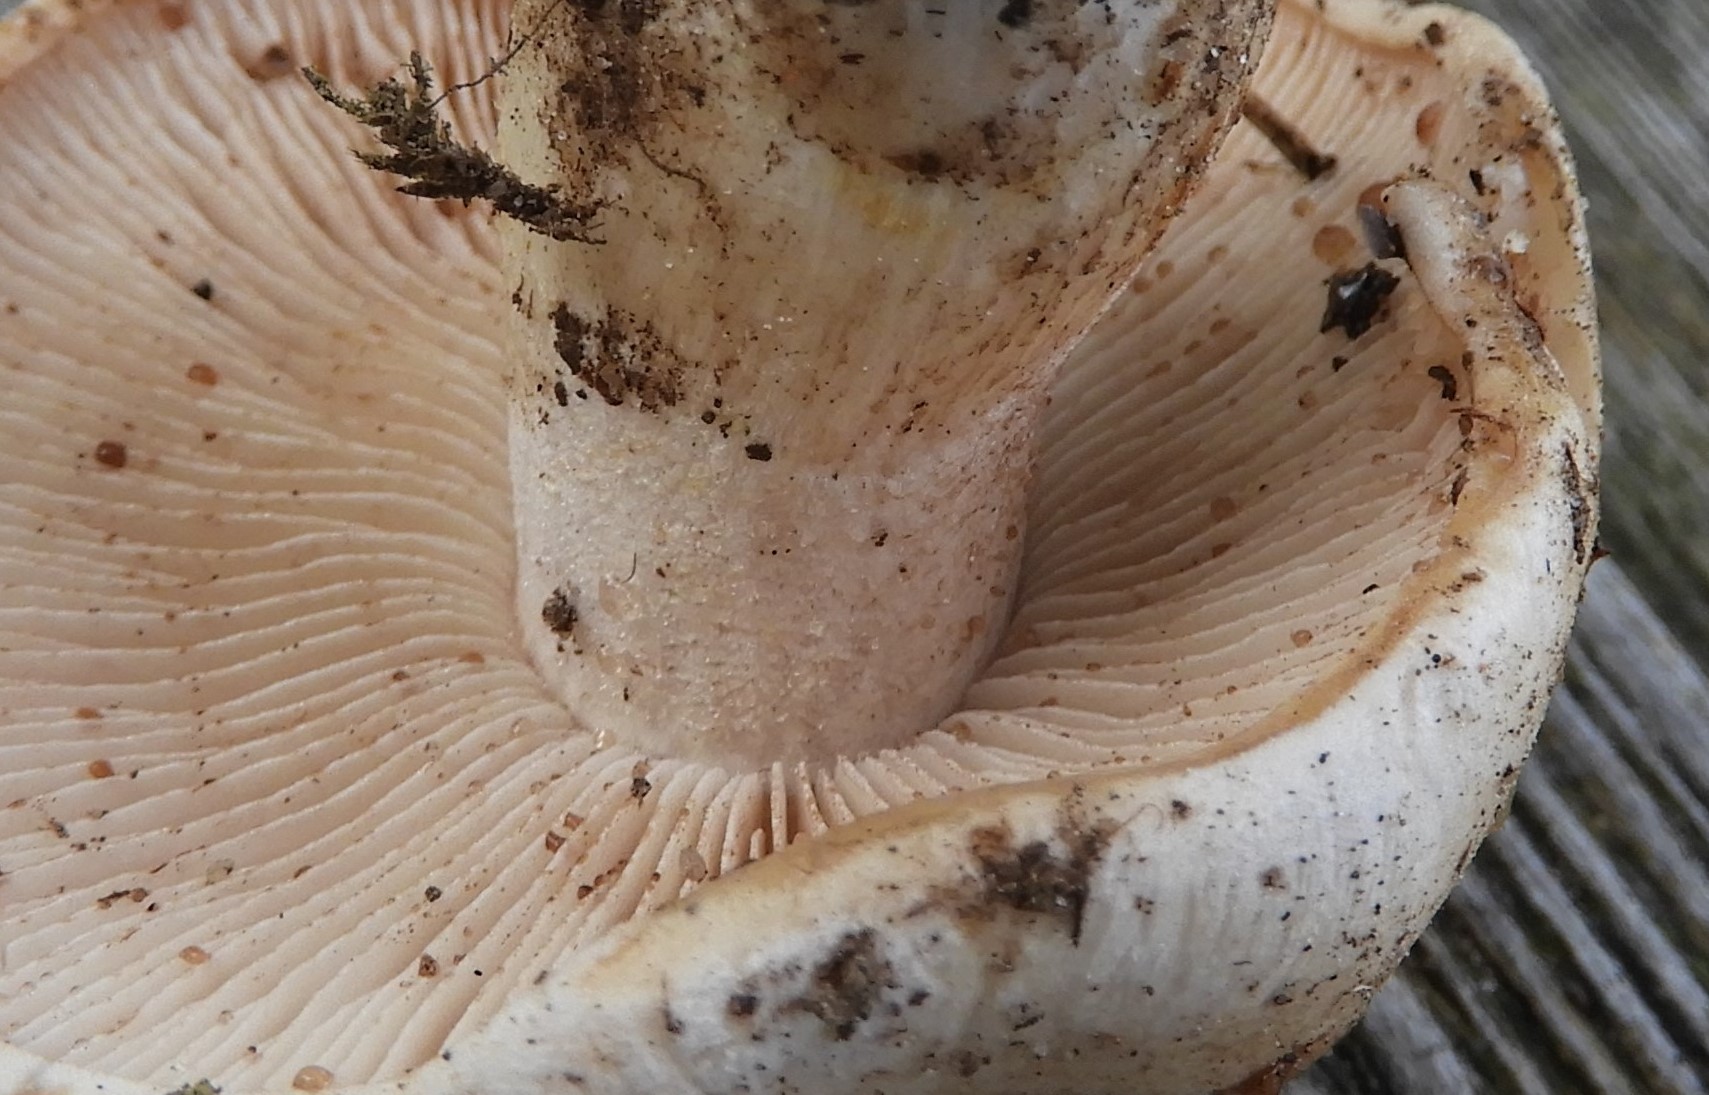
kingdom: Fungi
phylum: Basidiomycota
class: Agaricomycetes
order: Agaricales
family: Hymenogastraceae
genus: Hebeloma
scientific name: Hebeloma
